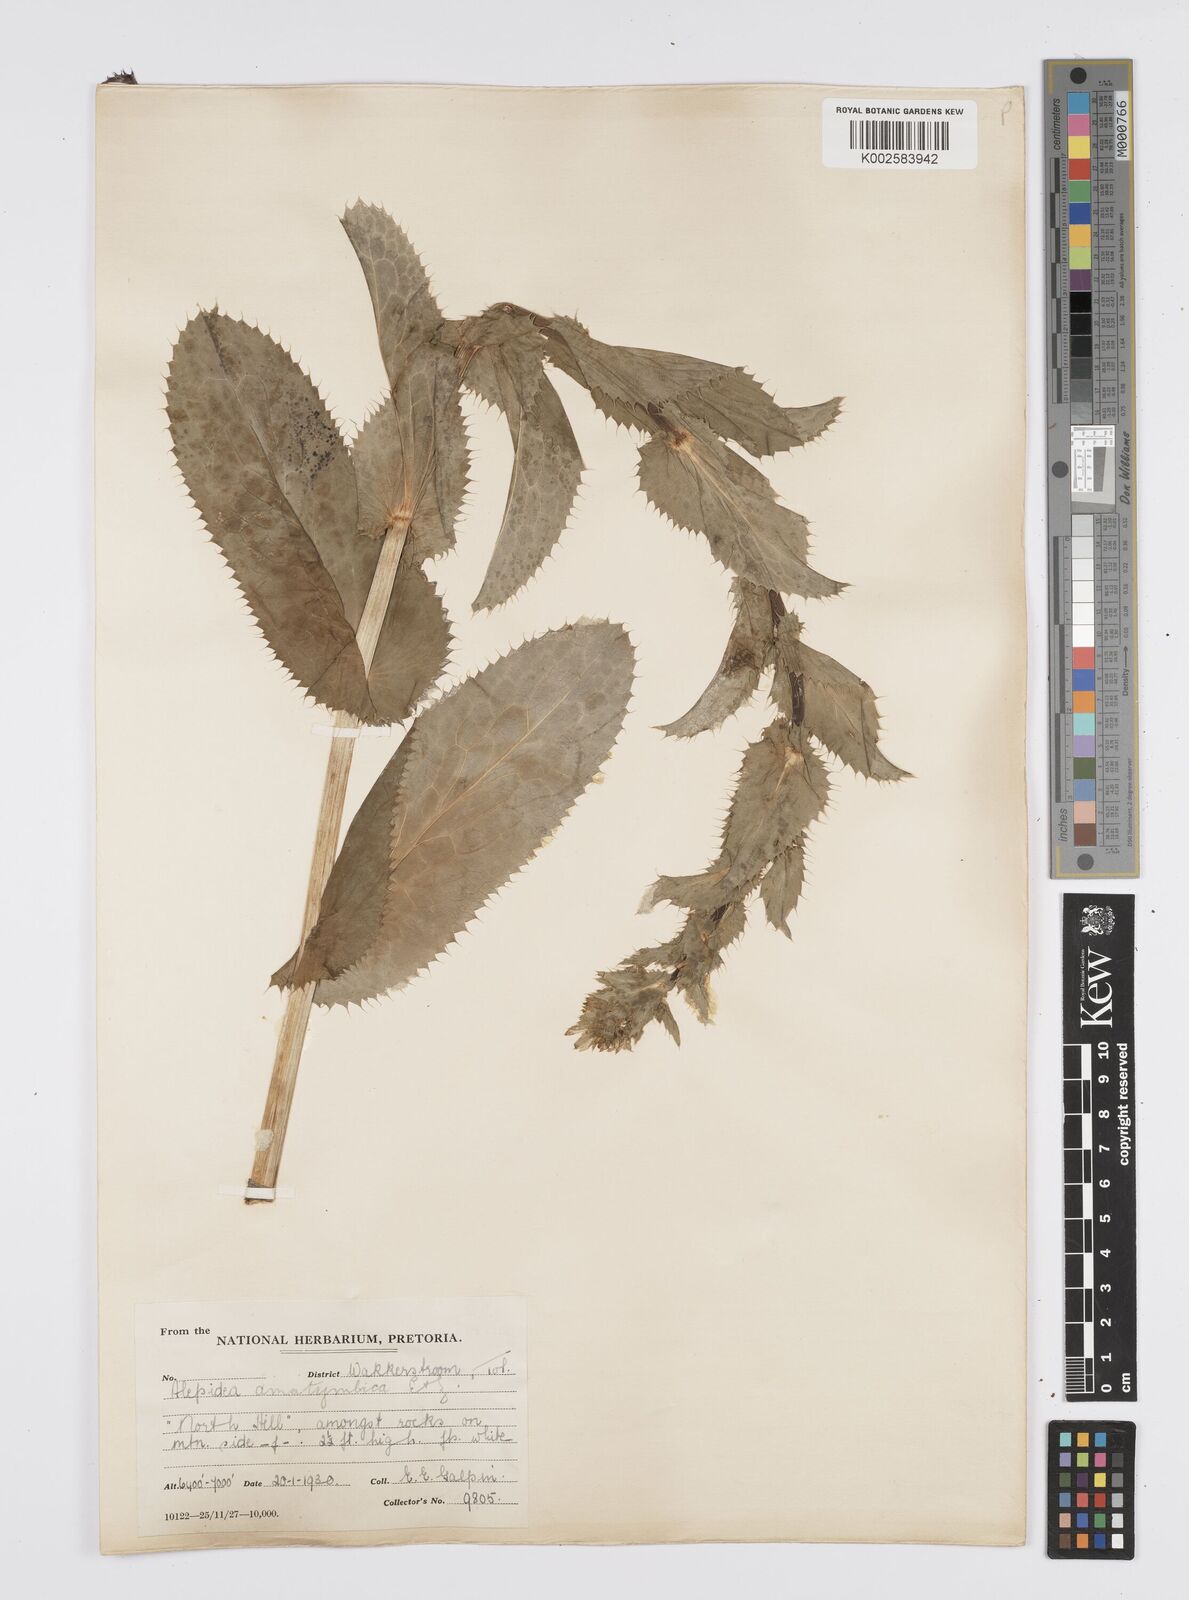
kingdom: Plantae
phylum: Tracheophyta
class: Magnoliopsida
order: Apiales
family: Apiaceae
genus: Alepidea
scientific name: Alepidea amatymbica
